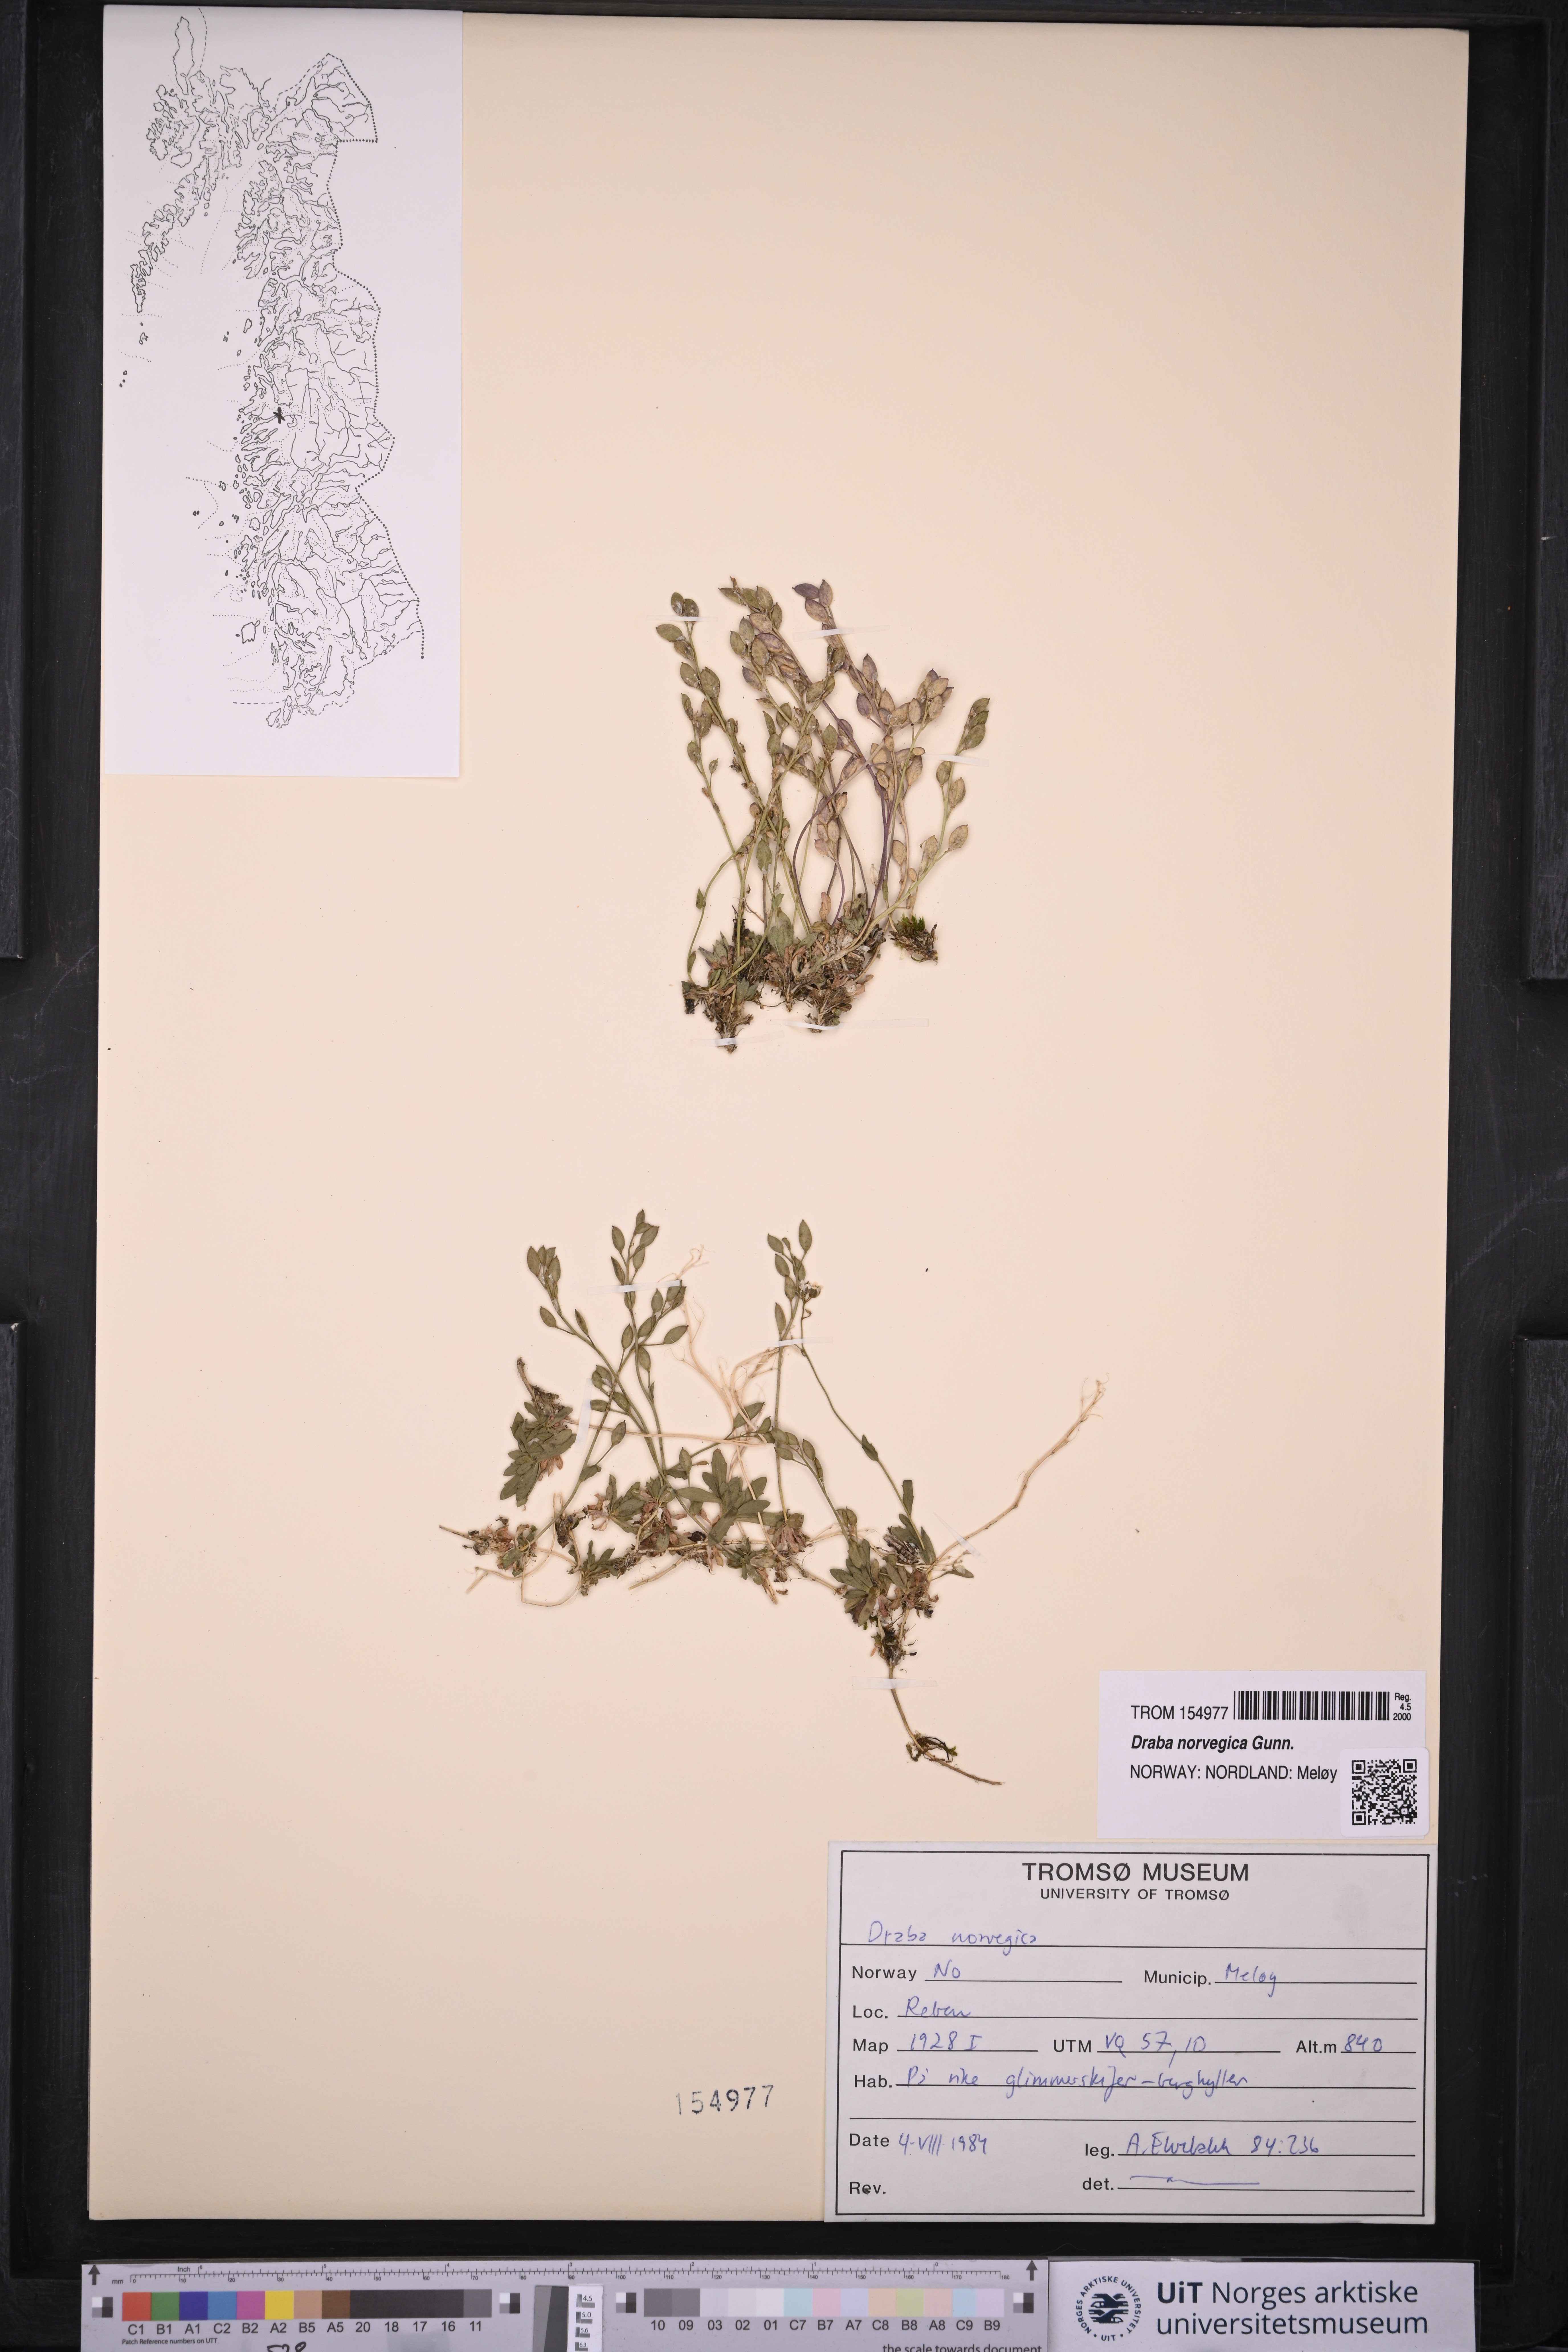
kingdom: Plantae
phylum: Tracheophyta
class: Magnoliopsida
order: Brassicales
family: Brassicaceae
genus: Draba
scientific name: Draba norvegica
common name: Rock whitlowgrass
